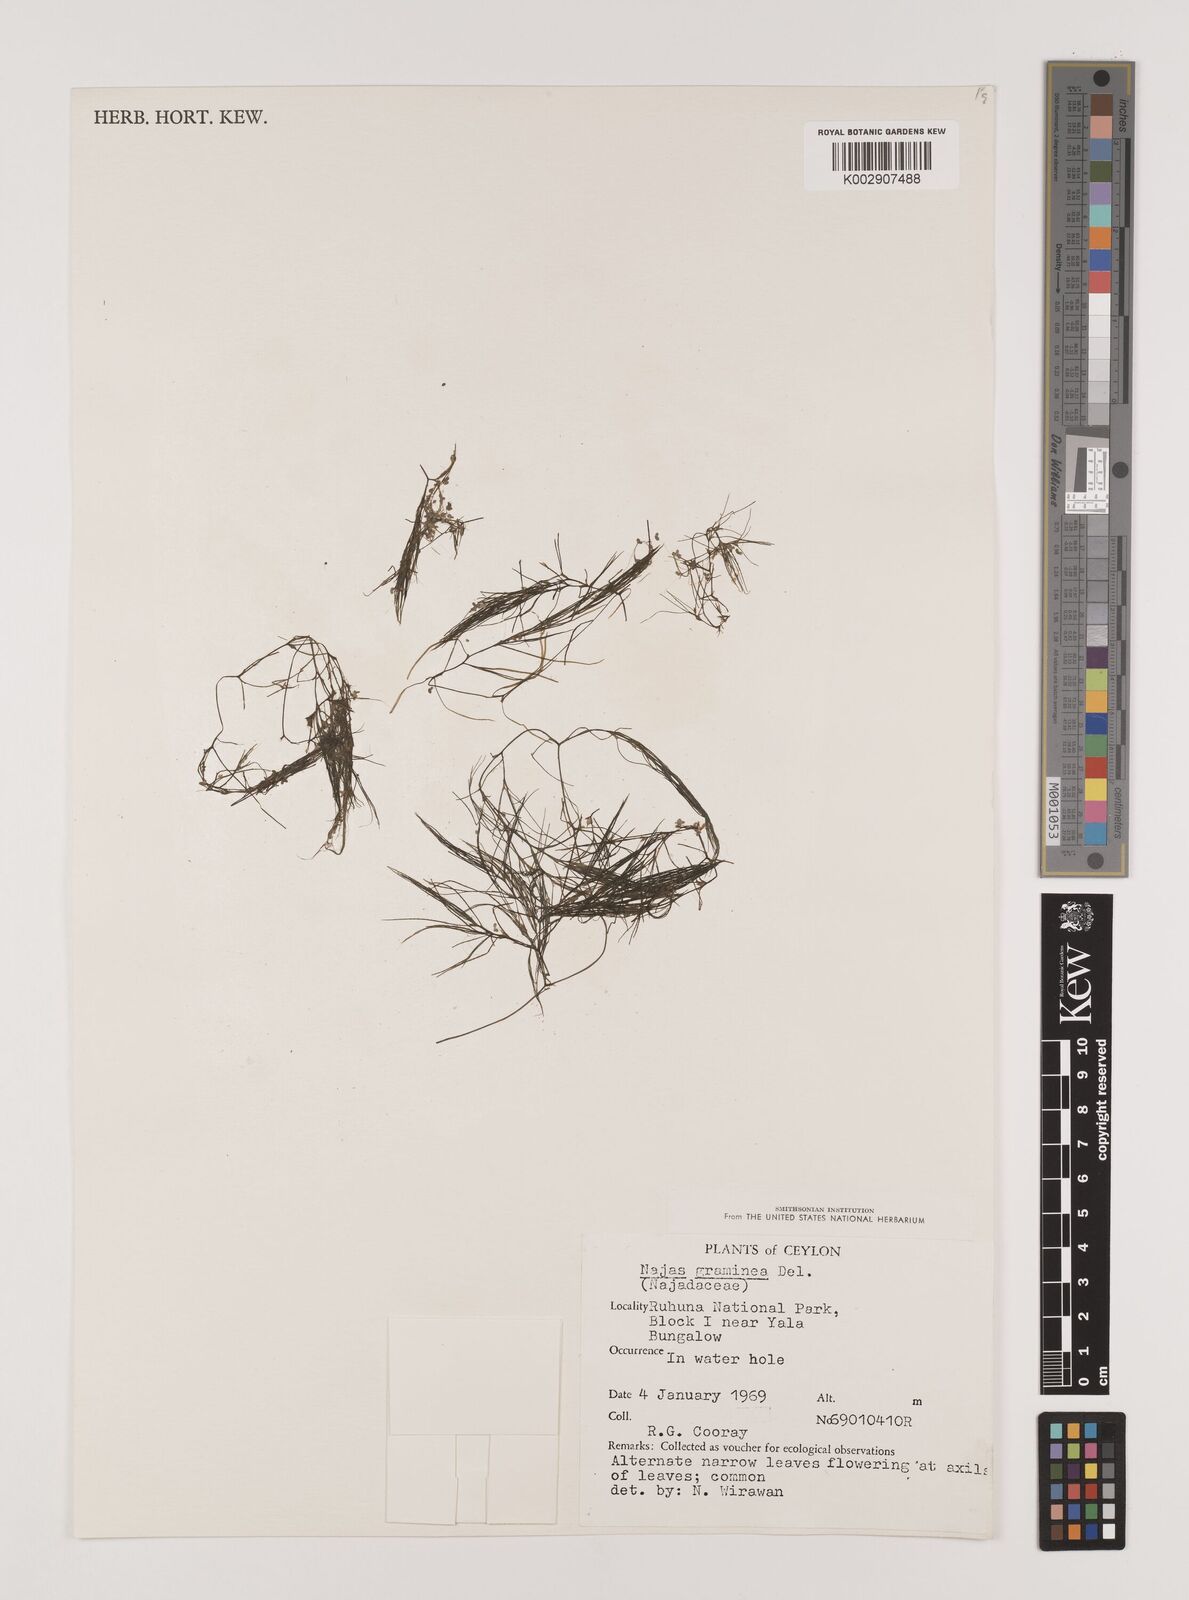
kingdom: Plantae
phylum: Tracheophyta
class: Liliopsida
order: Alismatales
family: Hydrocharitaceae
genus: Najas
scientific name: Najas graminea
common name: Ricefield waternymph
